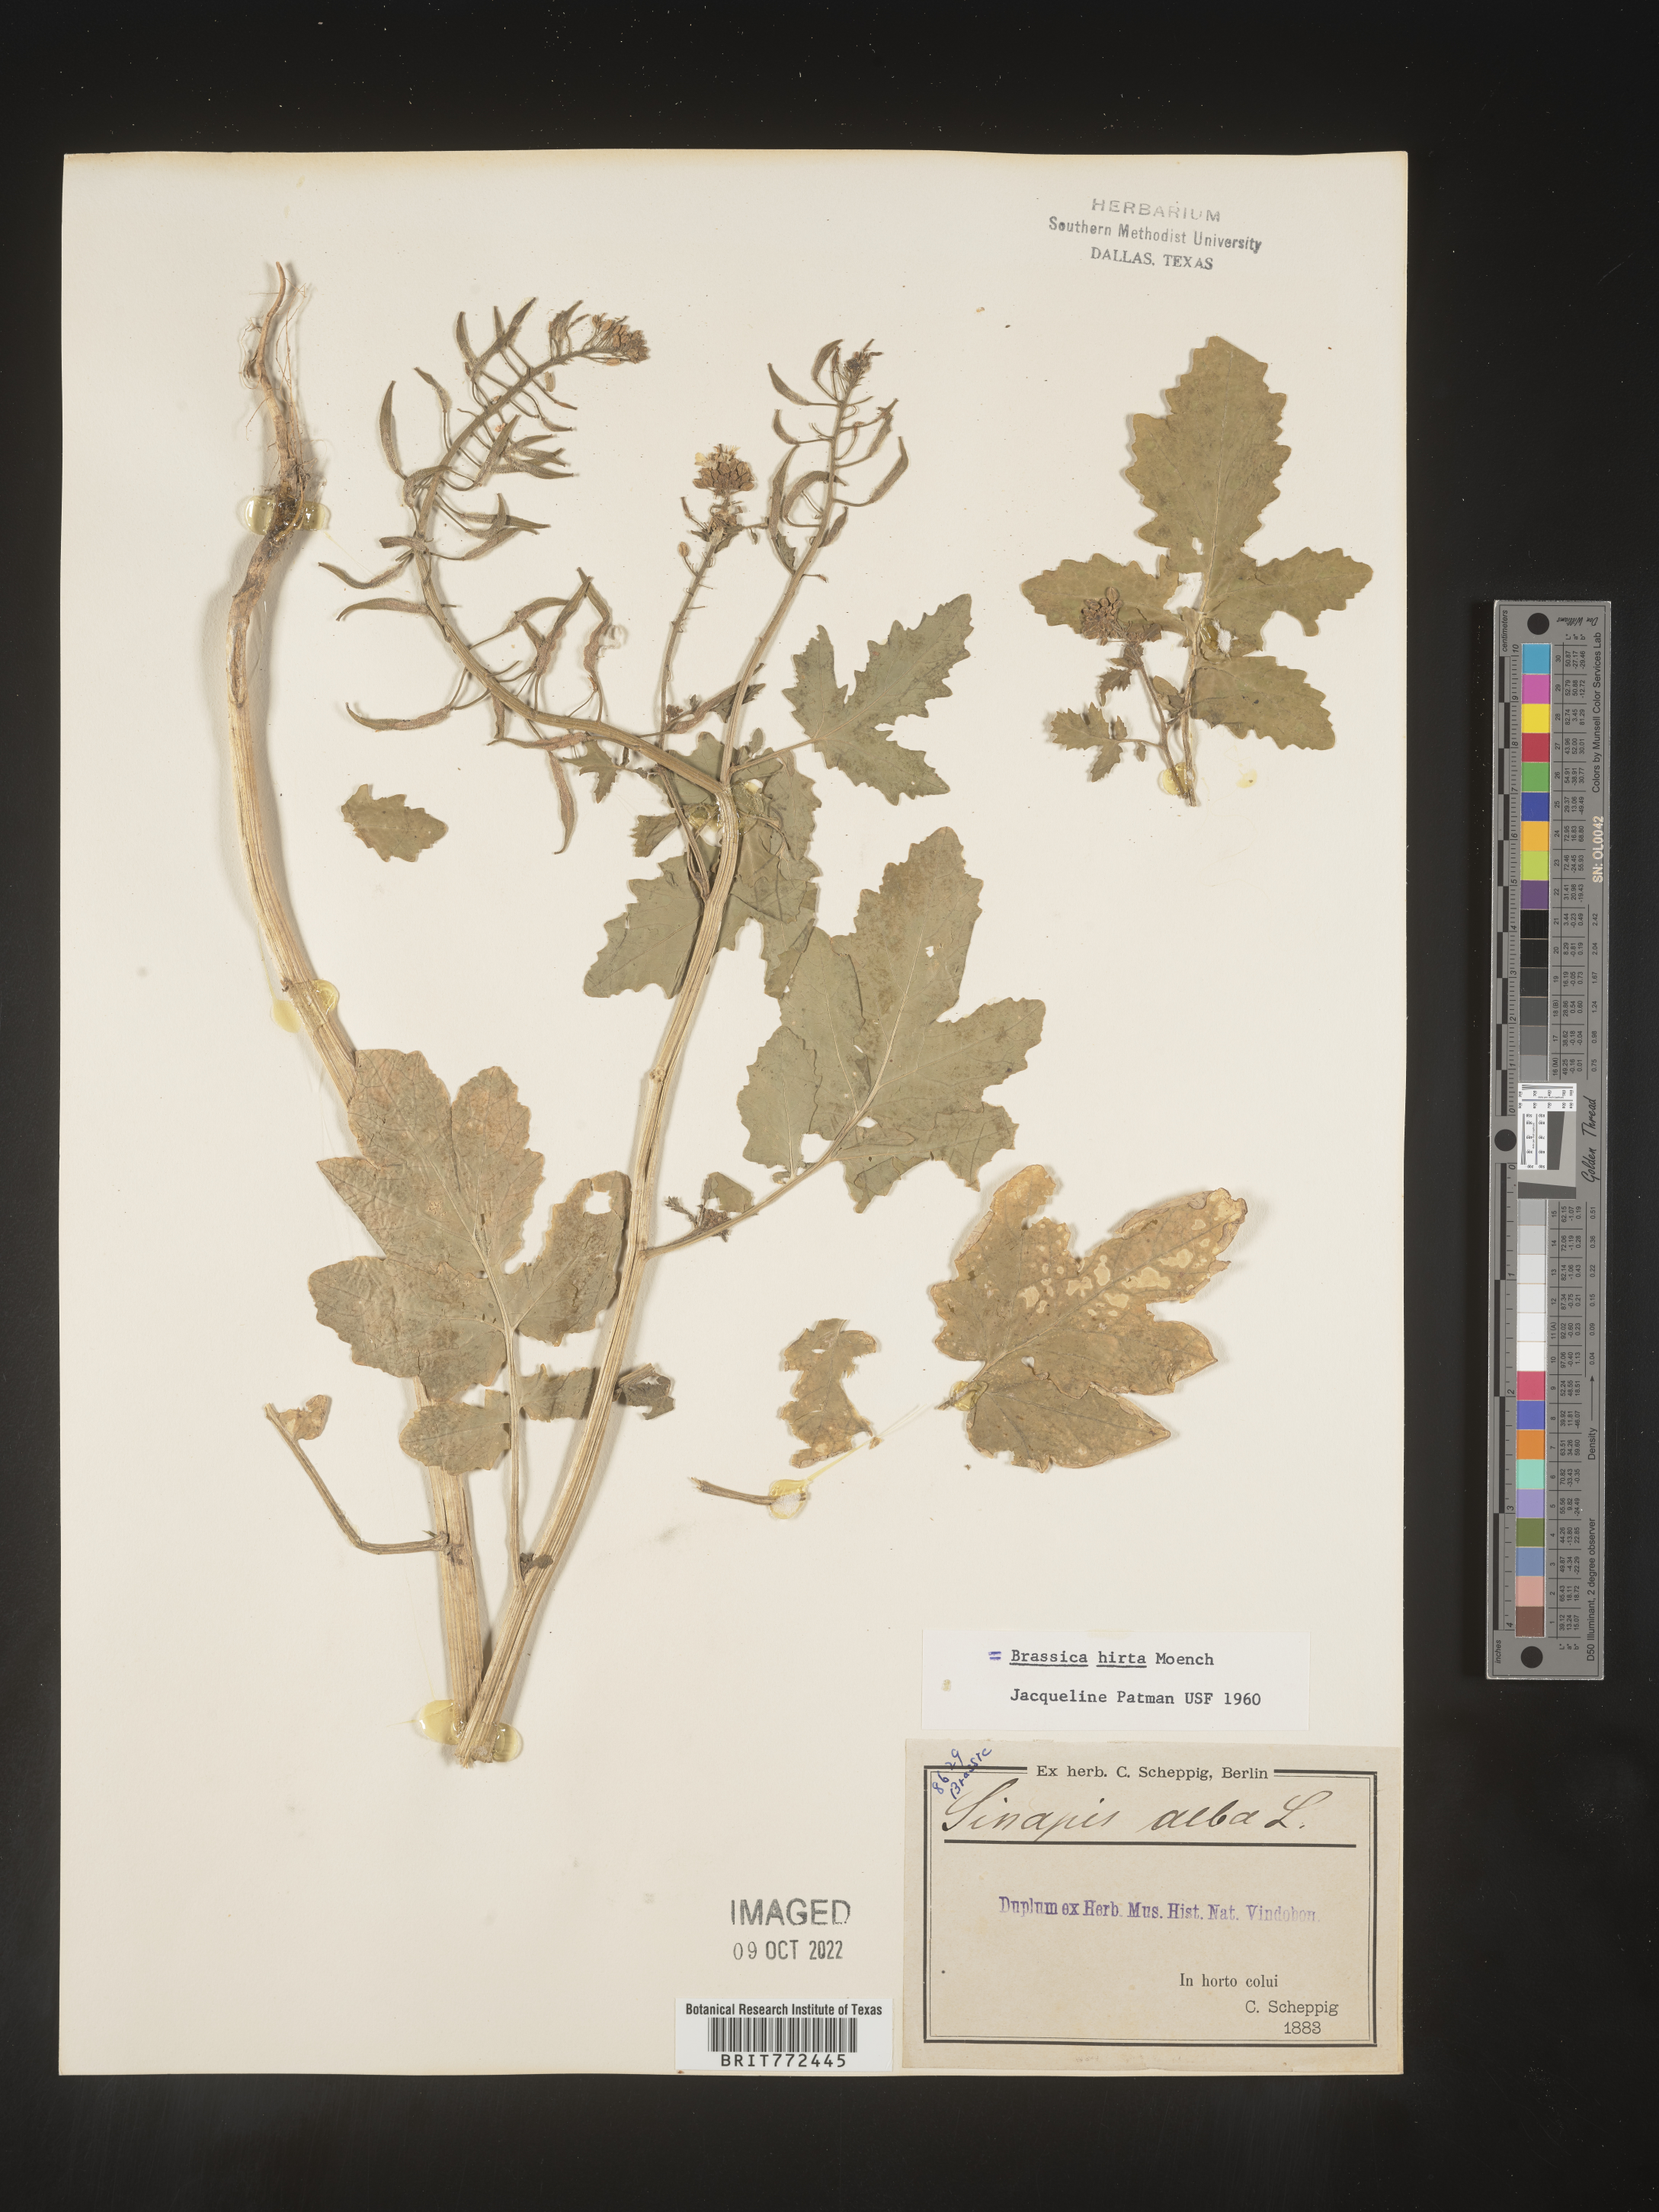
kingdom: Plantae
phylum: Tracheophyta
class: Magnoliopsida
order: Brassicales
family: Brassicaceae
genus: Brassica
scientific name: Brassica
